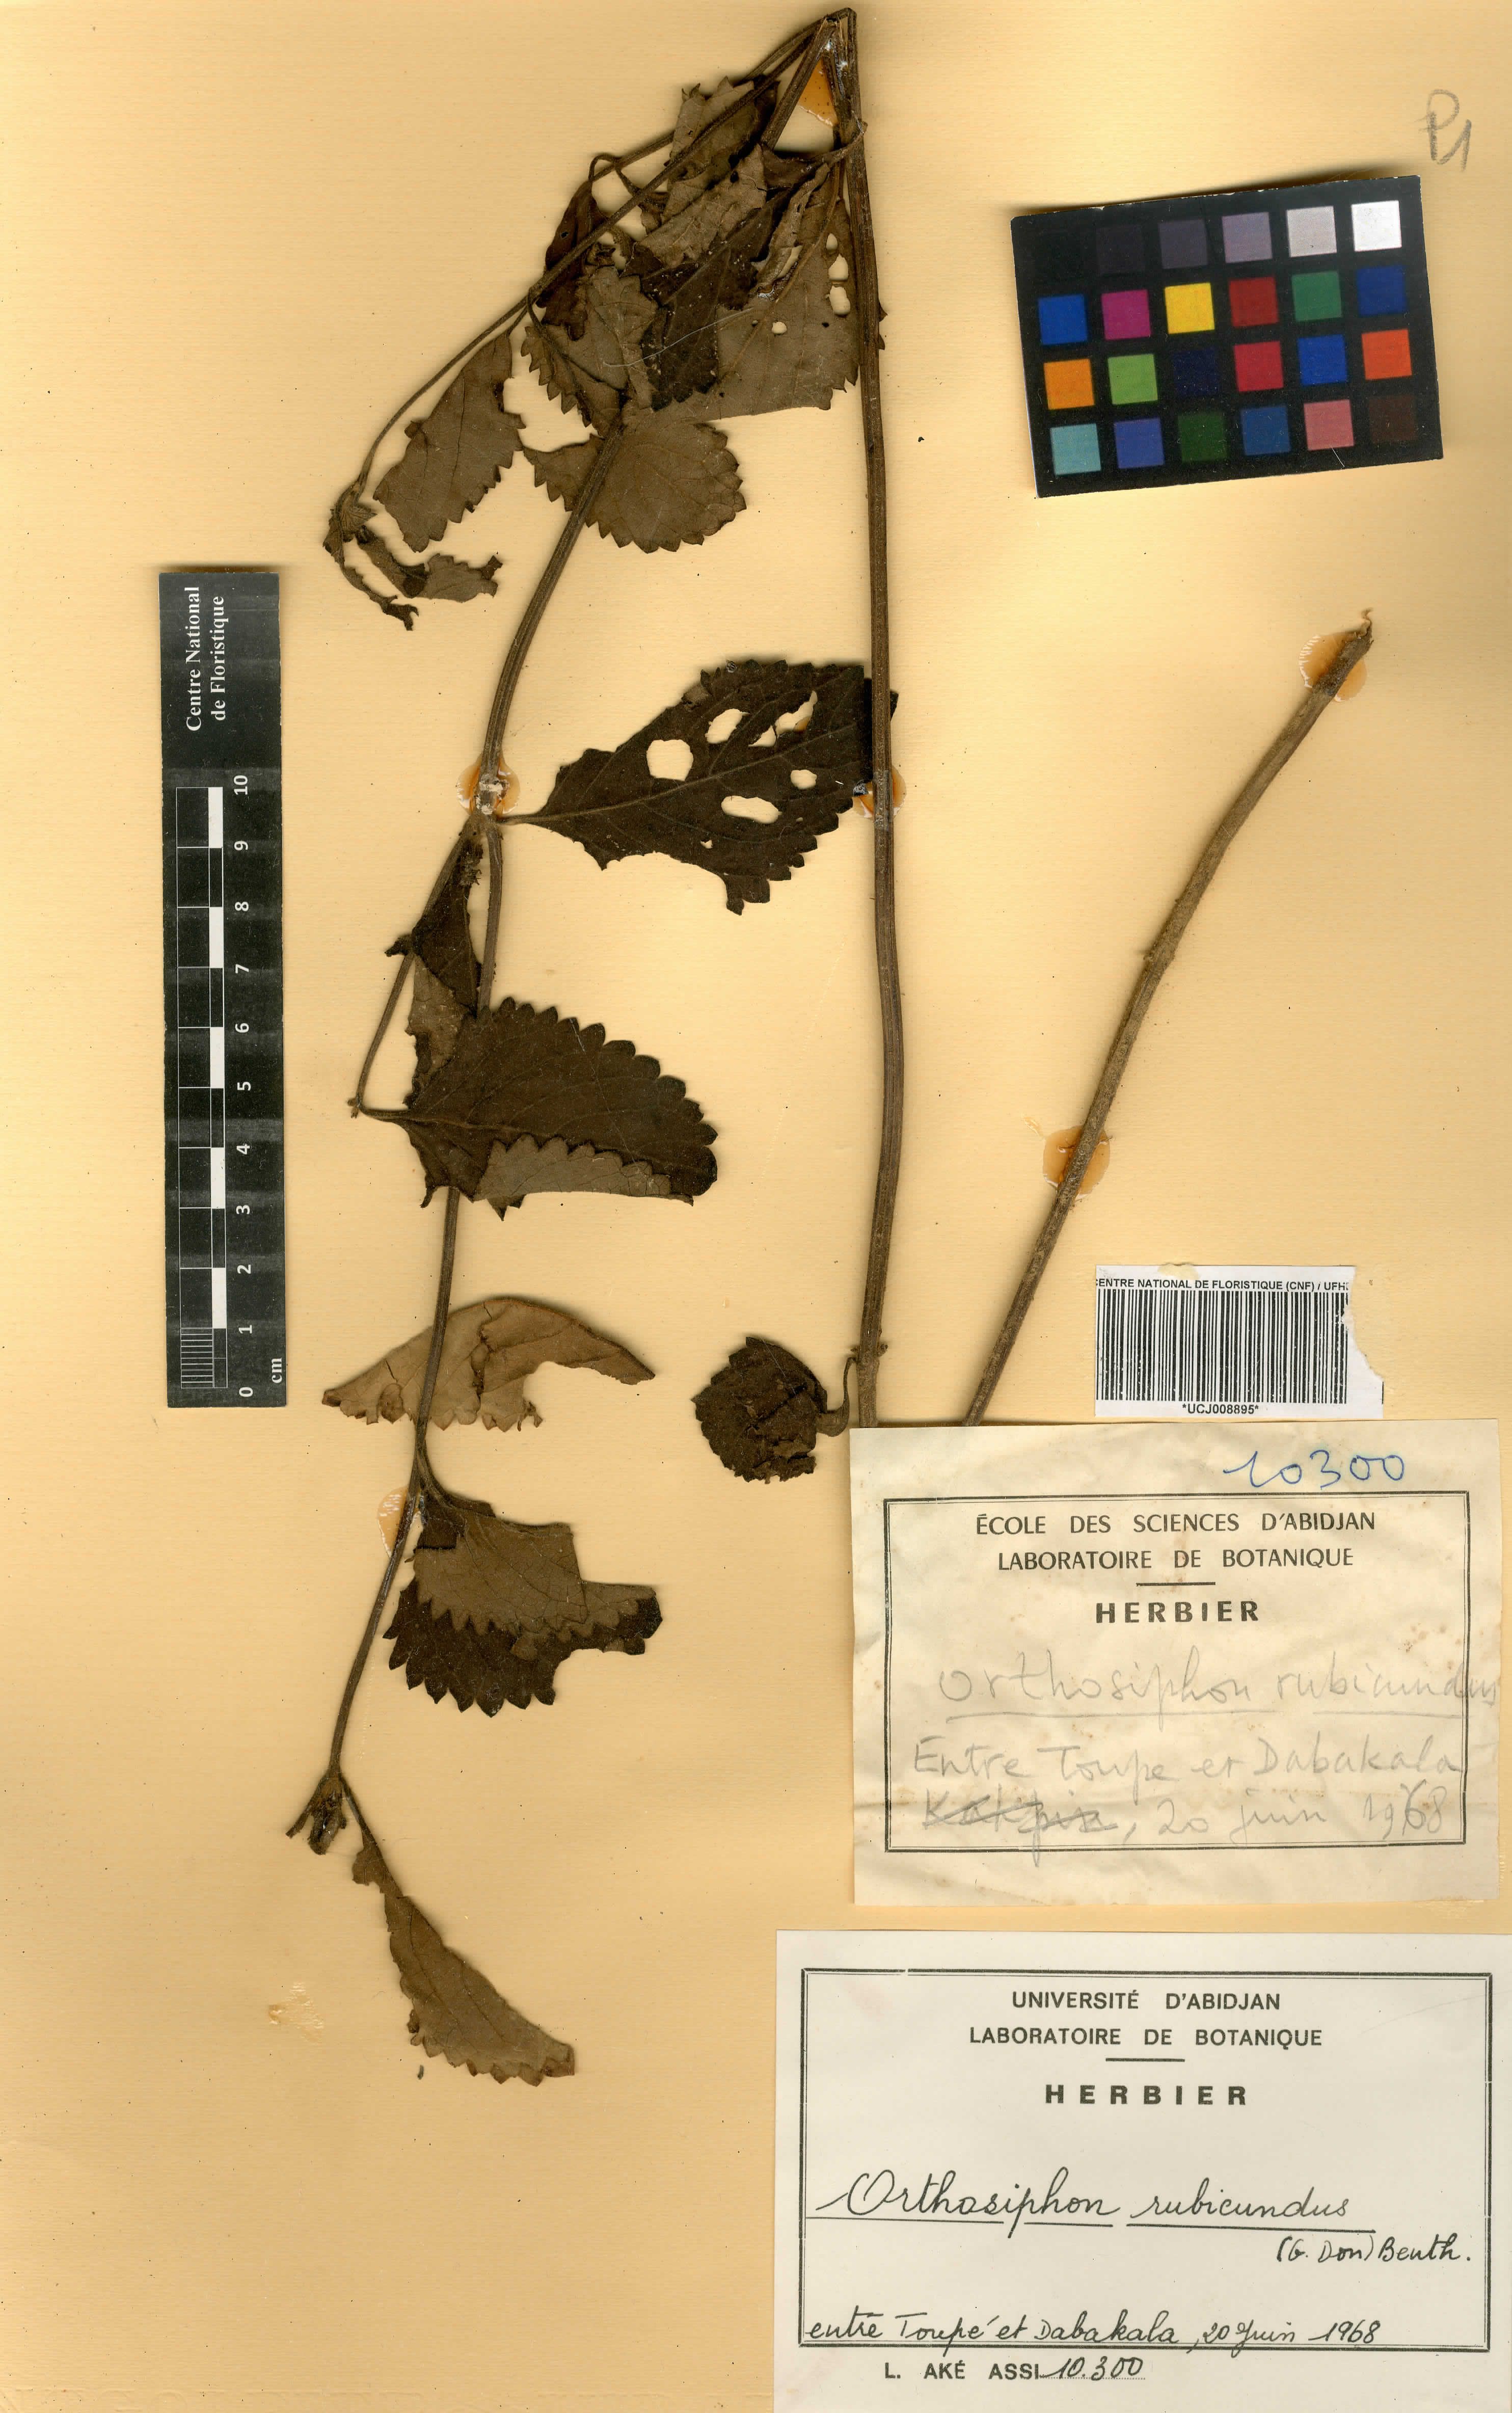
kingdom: Plantae
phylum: Tracheophyta
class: Magnoliopsida
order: Lamiales
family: Lamiaceae
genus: Orthosiphon
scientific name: Orthosiphon rubicundus
